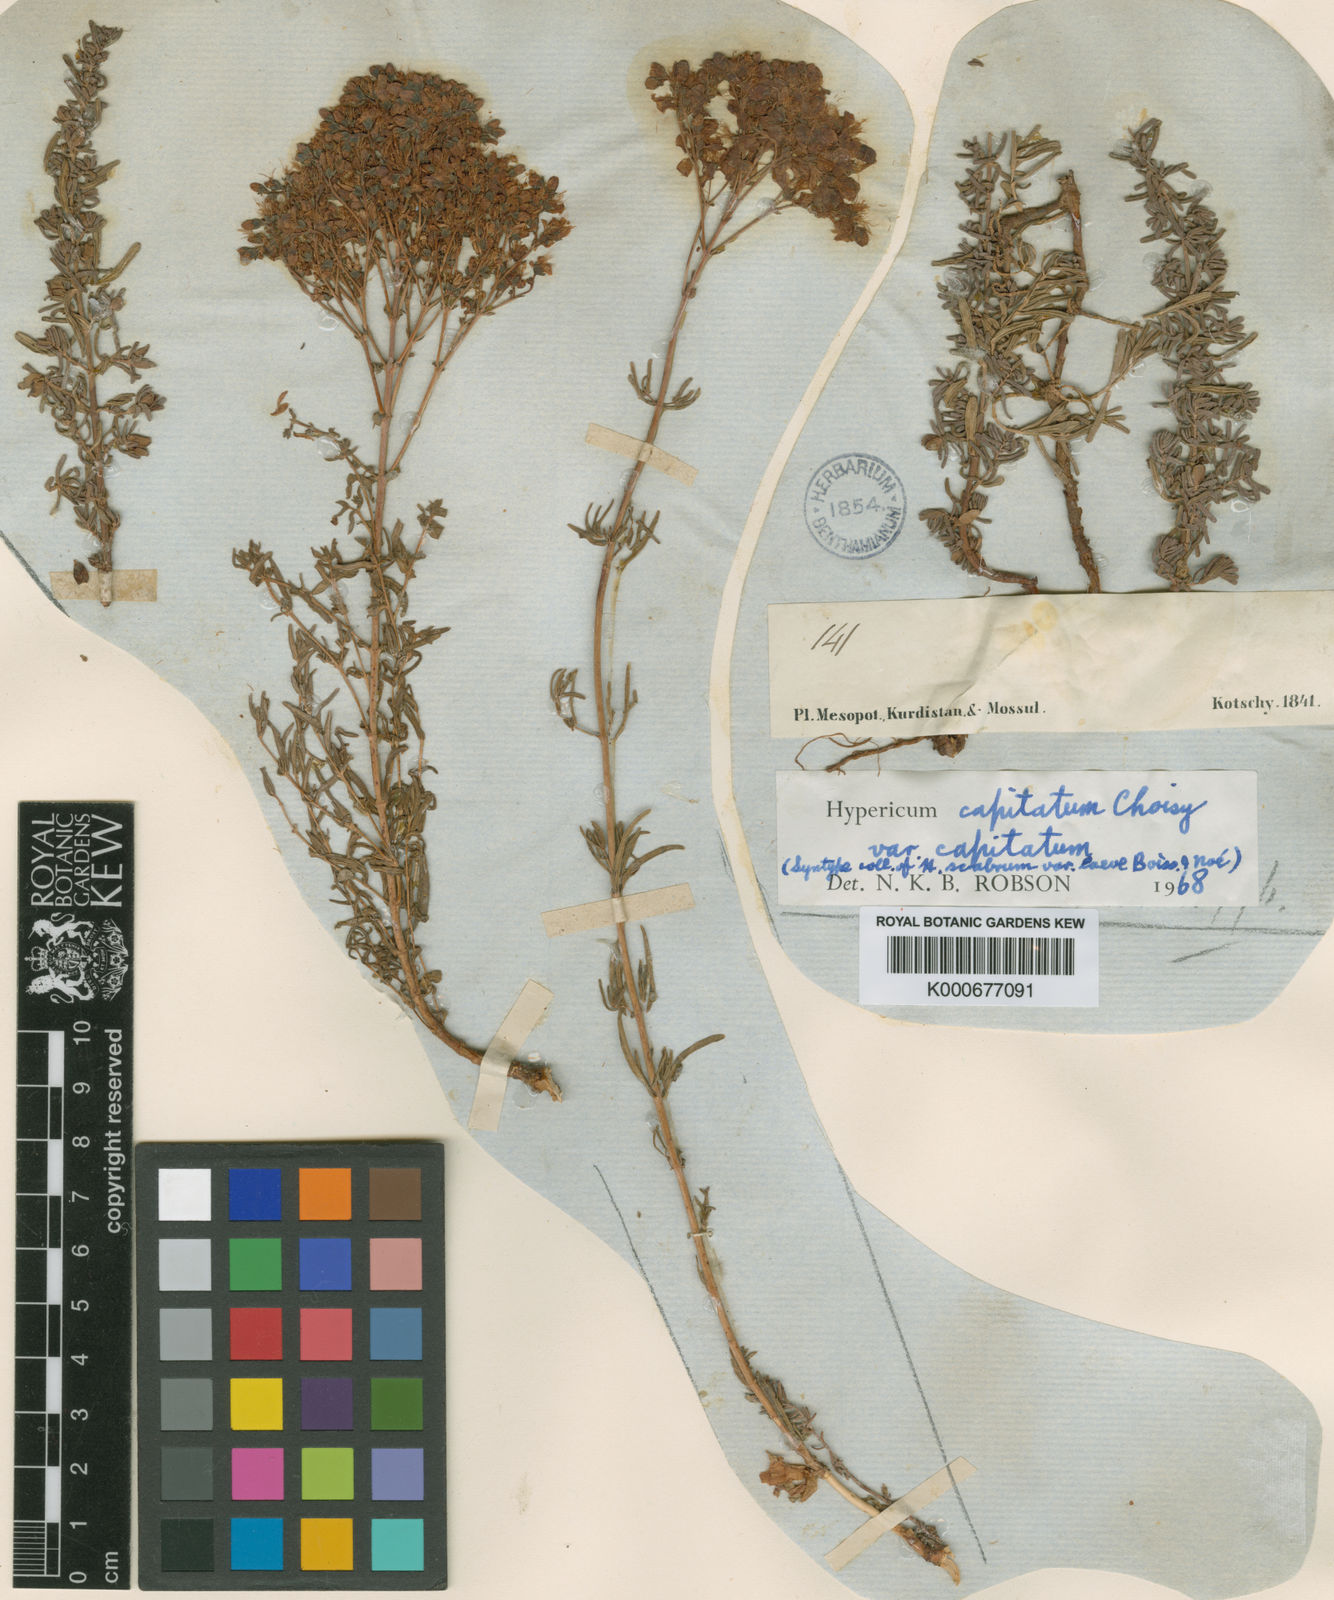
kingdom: Plantae
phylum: Tracheophyta
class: Magnoliopsida
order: Malpighiales
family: Hypericaceae
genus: Hypericum
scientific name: Hypericum capitatum
